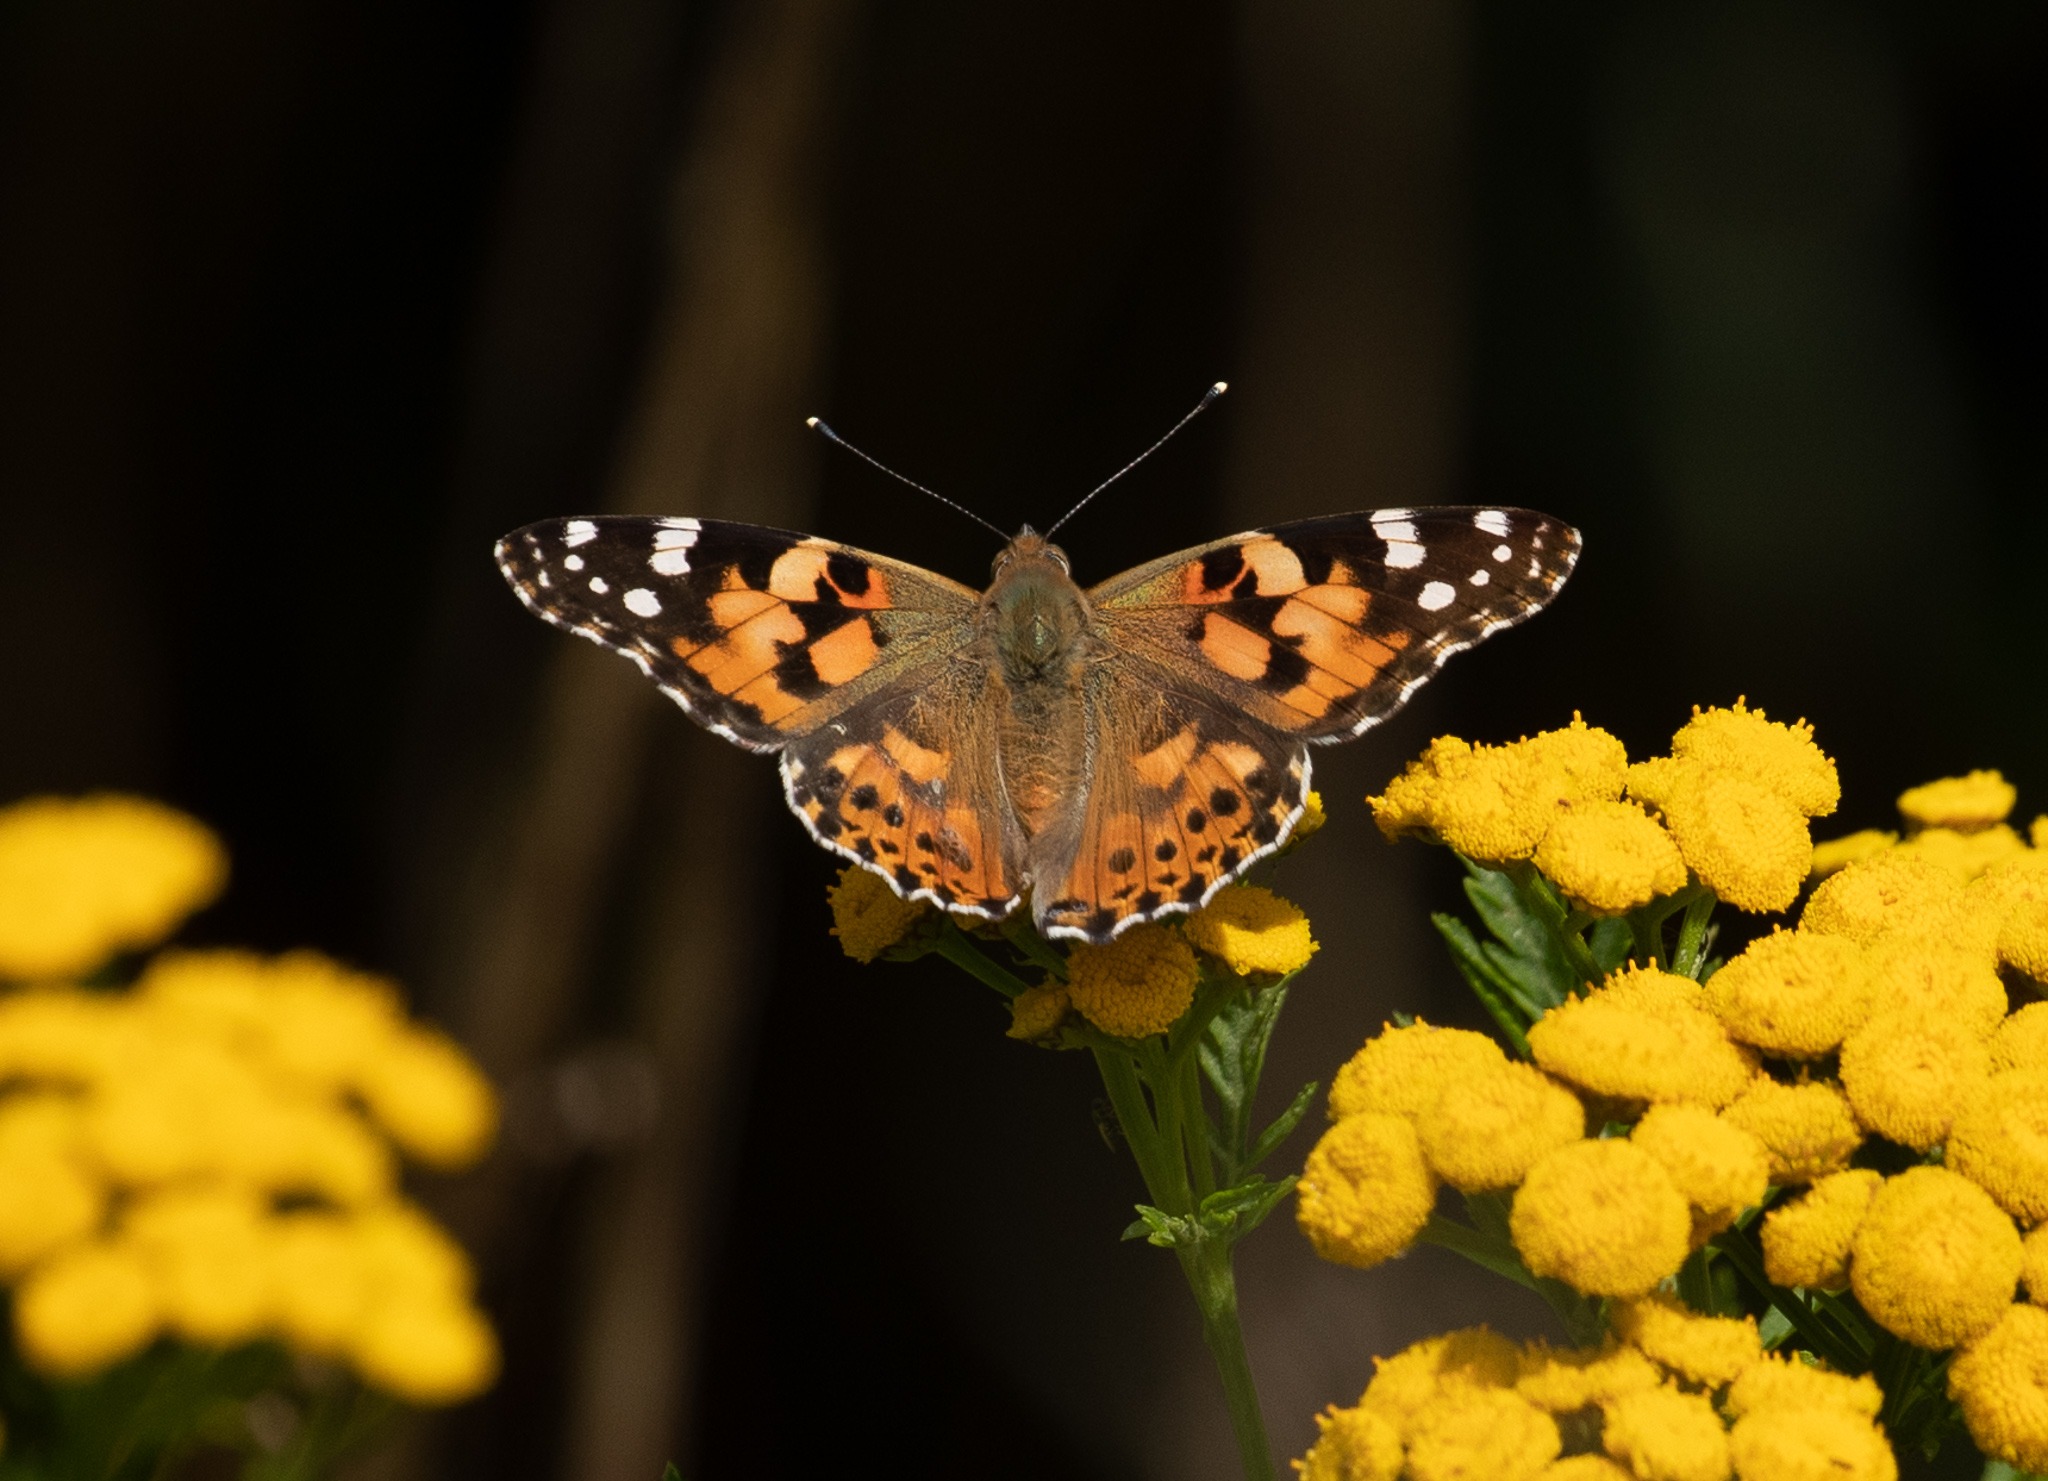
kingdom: Animalia
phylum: Arthropoda
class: Insecta
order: Lepidoptera
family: Nymphalidae
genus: Vanessa
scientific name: Vanessa cardui
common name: Tidselsommerfugl
